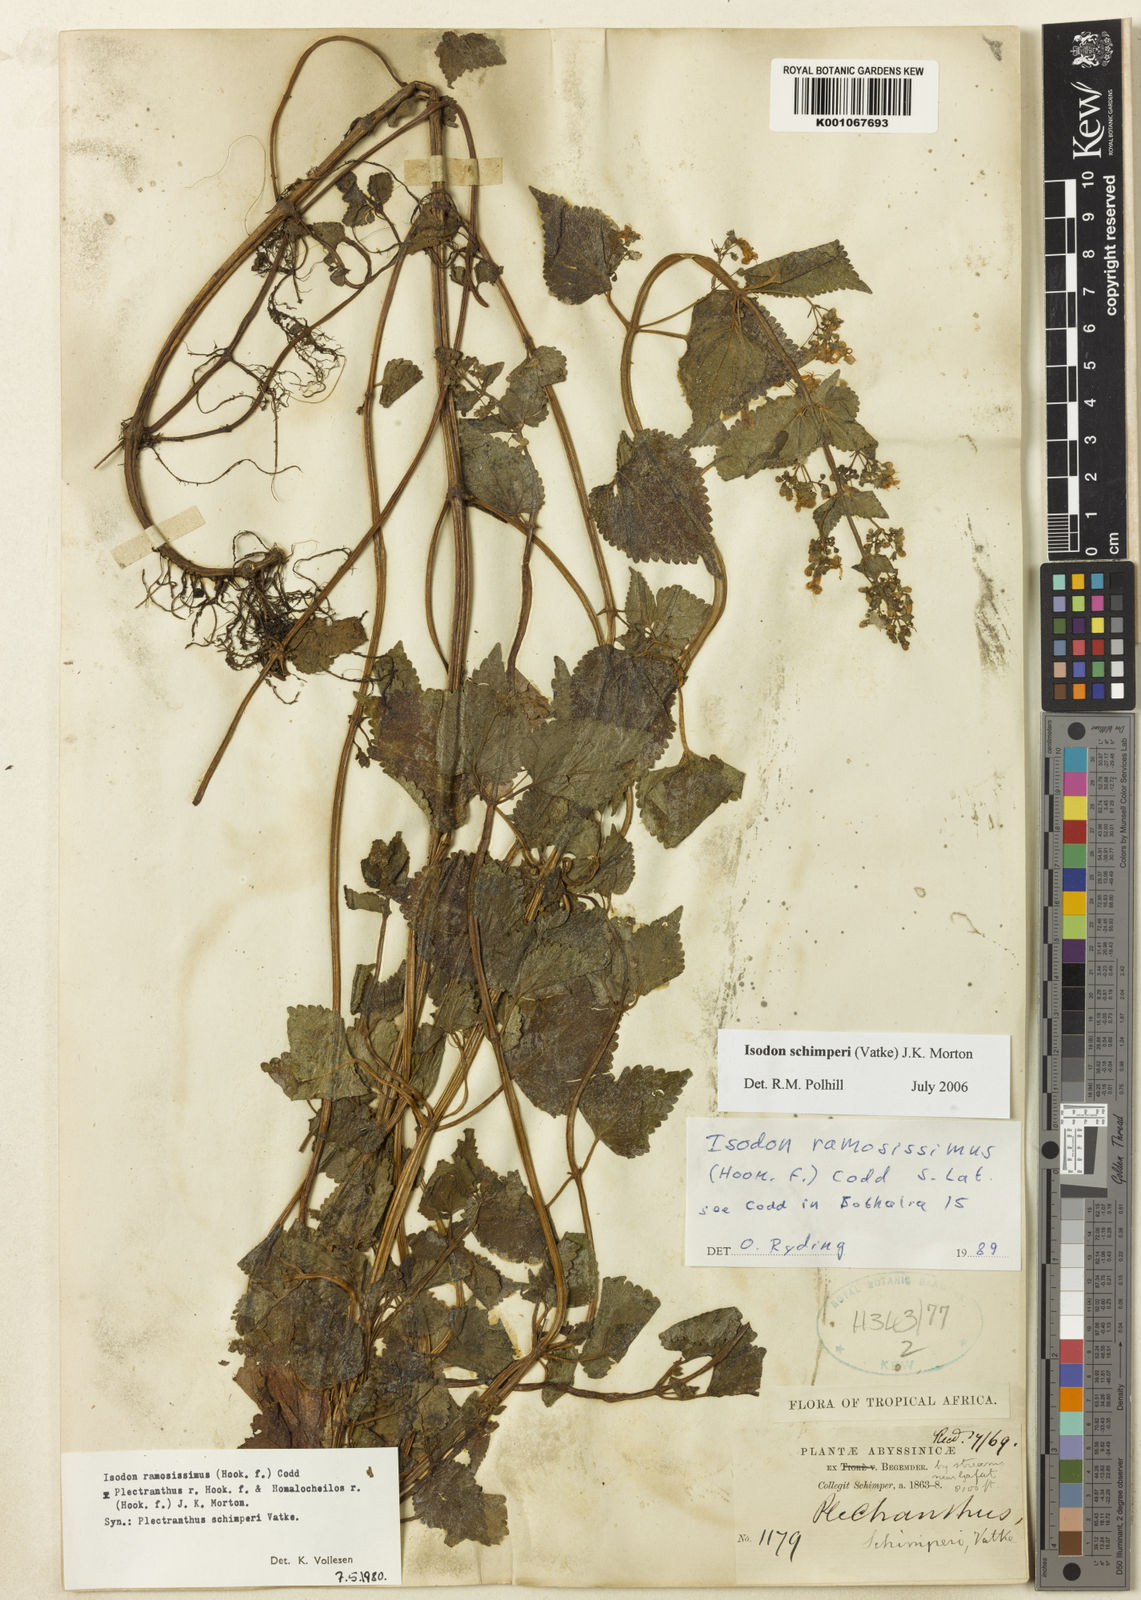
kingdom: Plantae
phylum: Tracheophyta
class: Magnoliopsida
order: Lamiales
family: Lamiaceae
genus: Isodon
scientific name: Isodon schimperi
